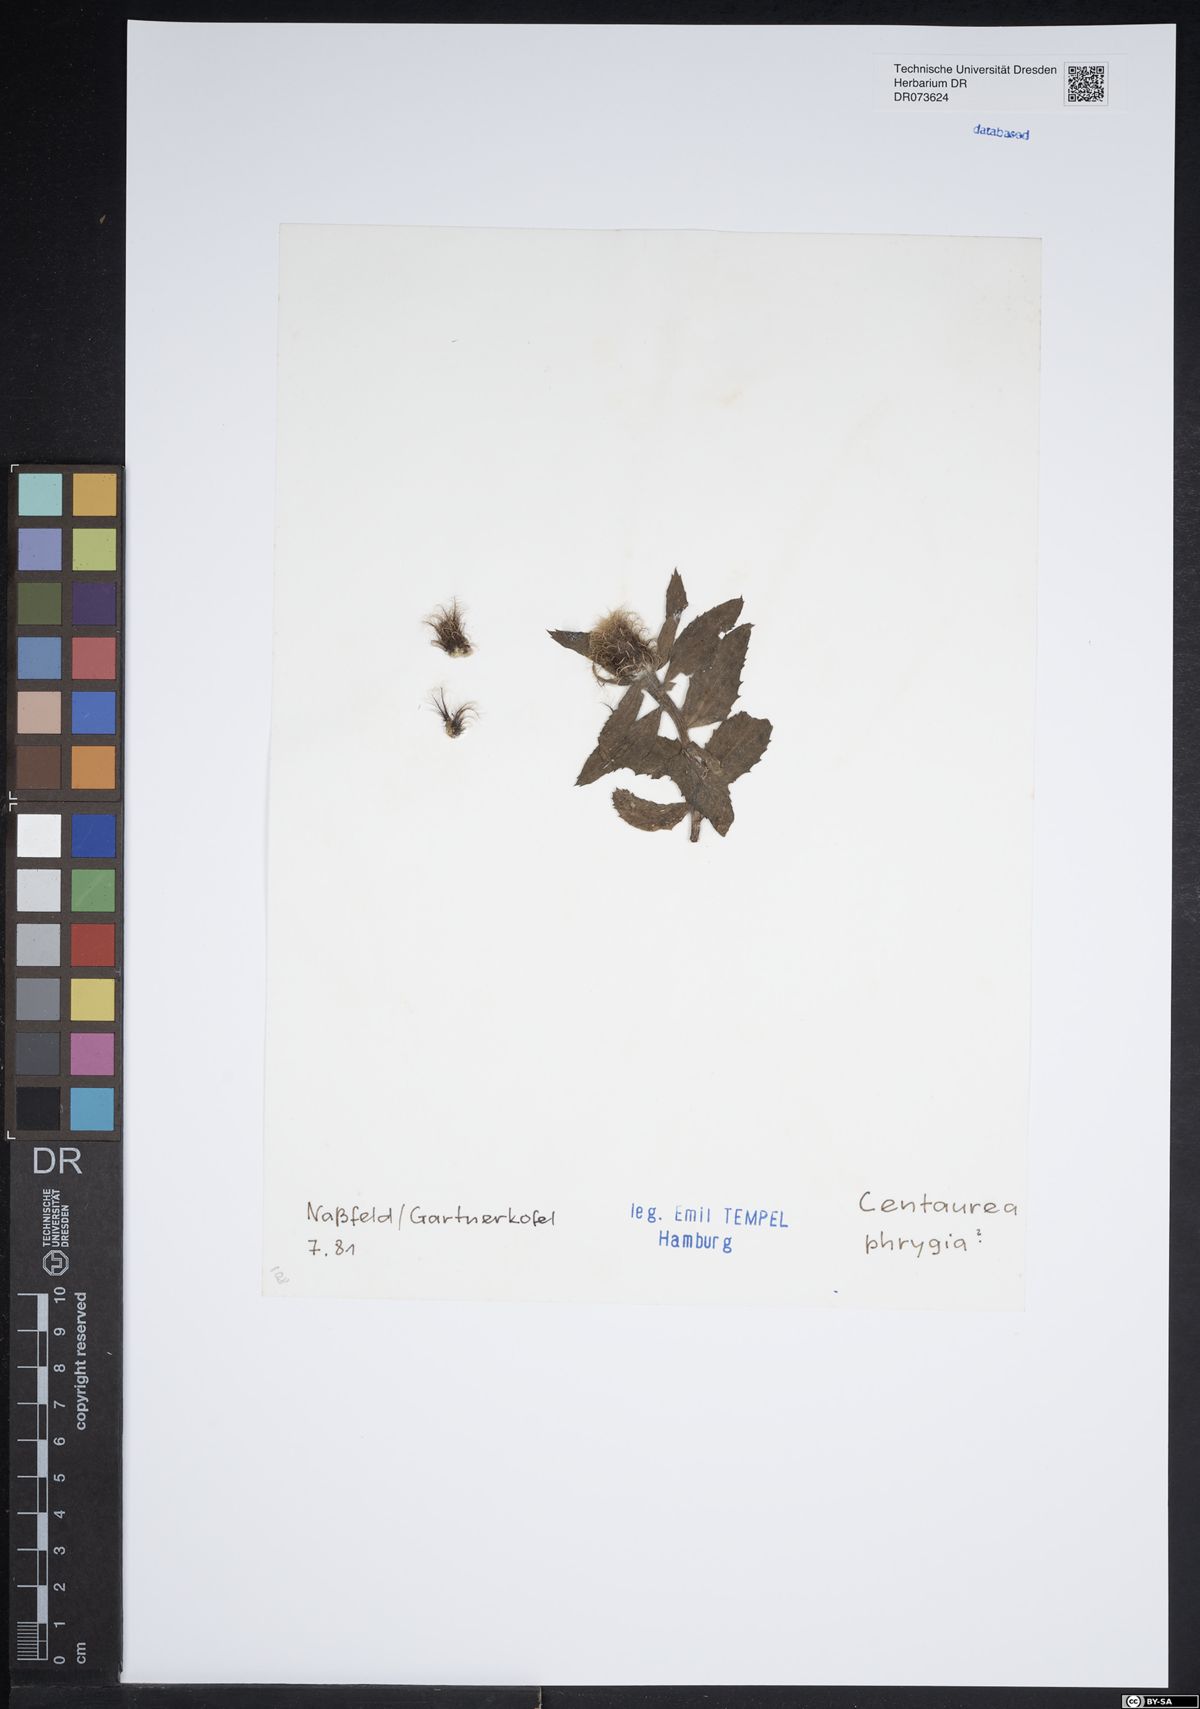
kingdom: Plantae
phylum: Tracheophyta
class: Magnoliopsida
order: Asterales
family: Asteraceae
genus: Centaurea
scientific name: Centaurea phrygia
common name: Wig knapweed
